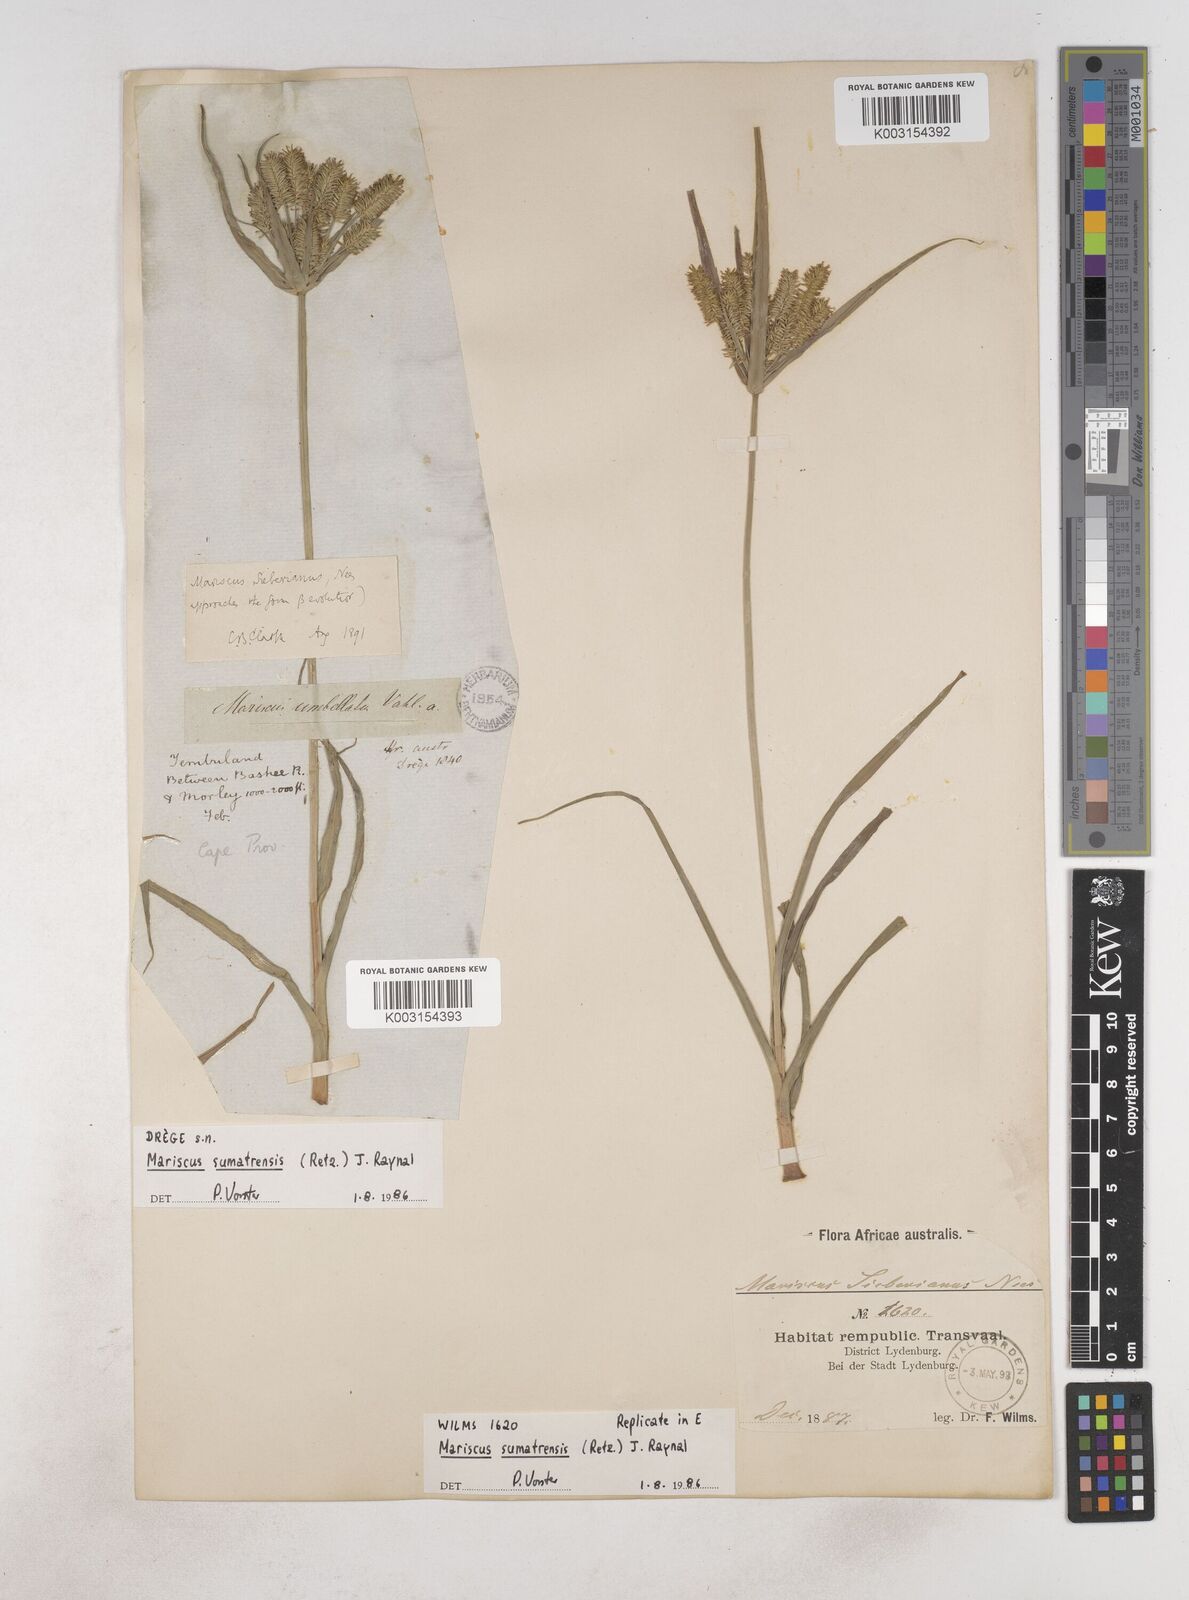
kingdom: Plantae
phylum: Tracheophyta
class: Liliopsida
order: Poales
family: Cyperaceae
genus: Cyperus
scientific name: Cyperus cyperoides
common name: Pacific island flat sedge
